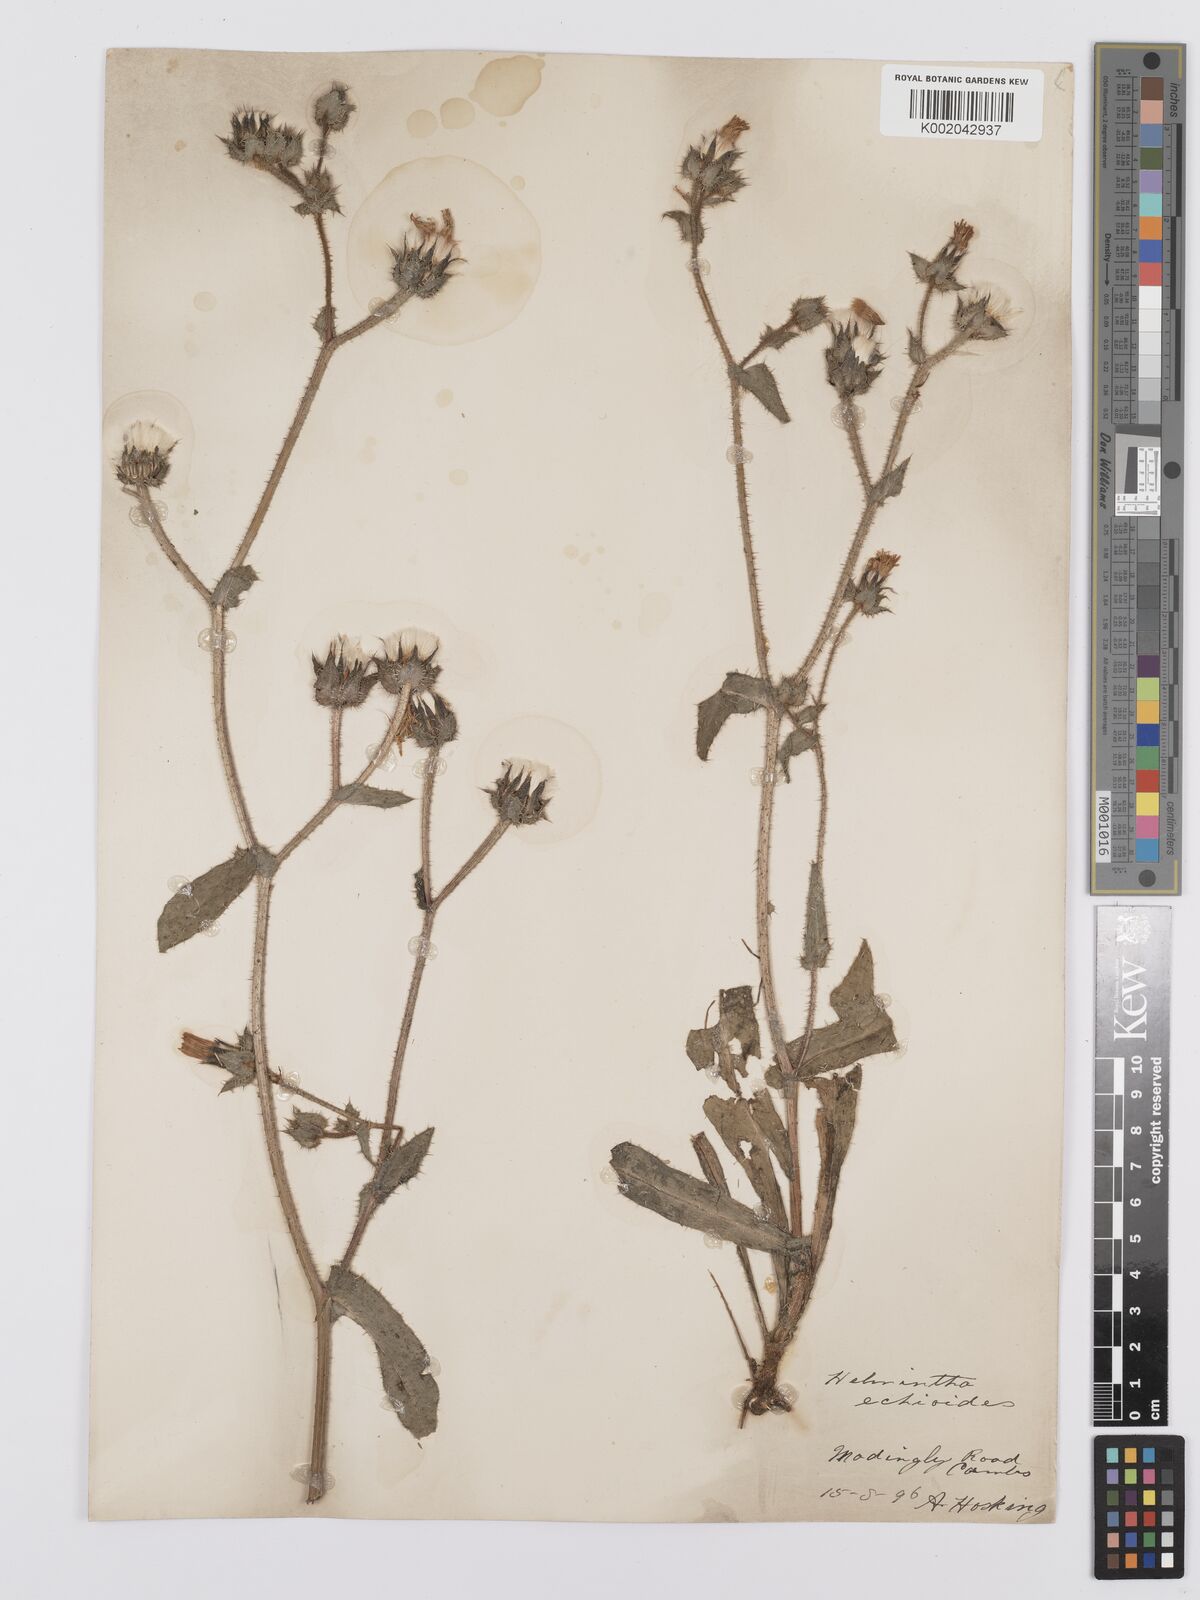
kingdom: Plantae
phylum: Tracheophyta
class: Magnoliopsida
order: Asterales
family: Asteraceae
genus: Helminthotheca
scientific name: Helminthotheca echioides
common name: Ox-tongue
